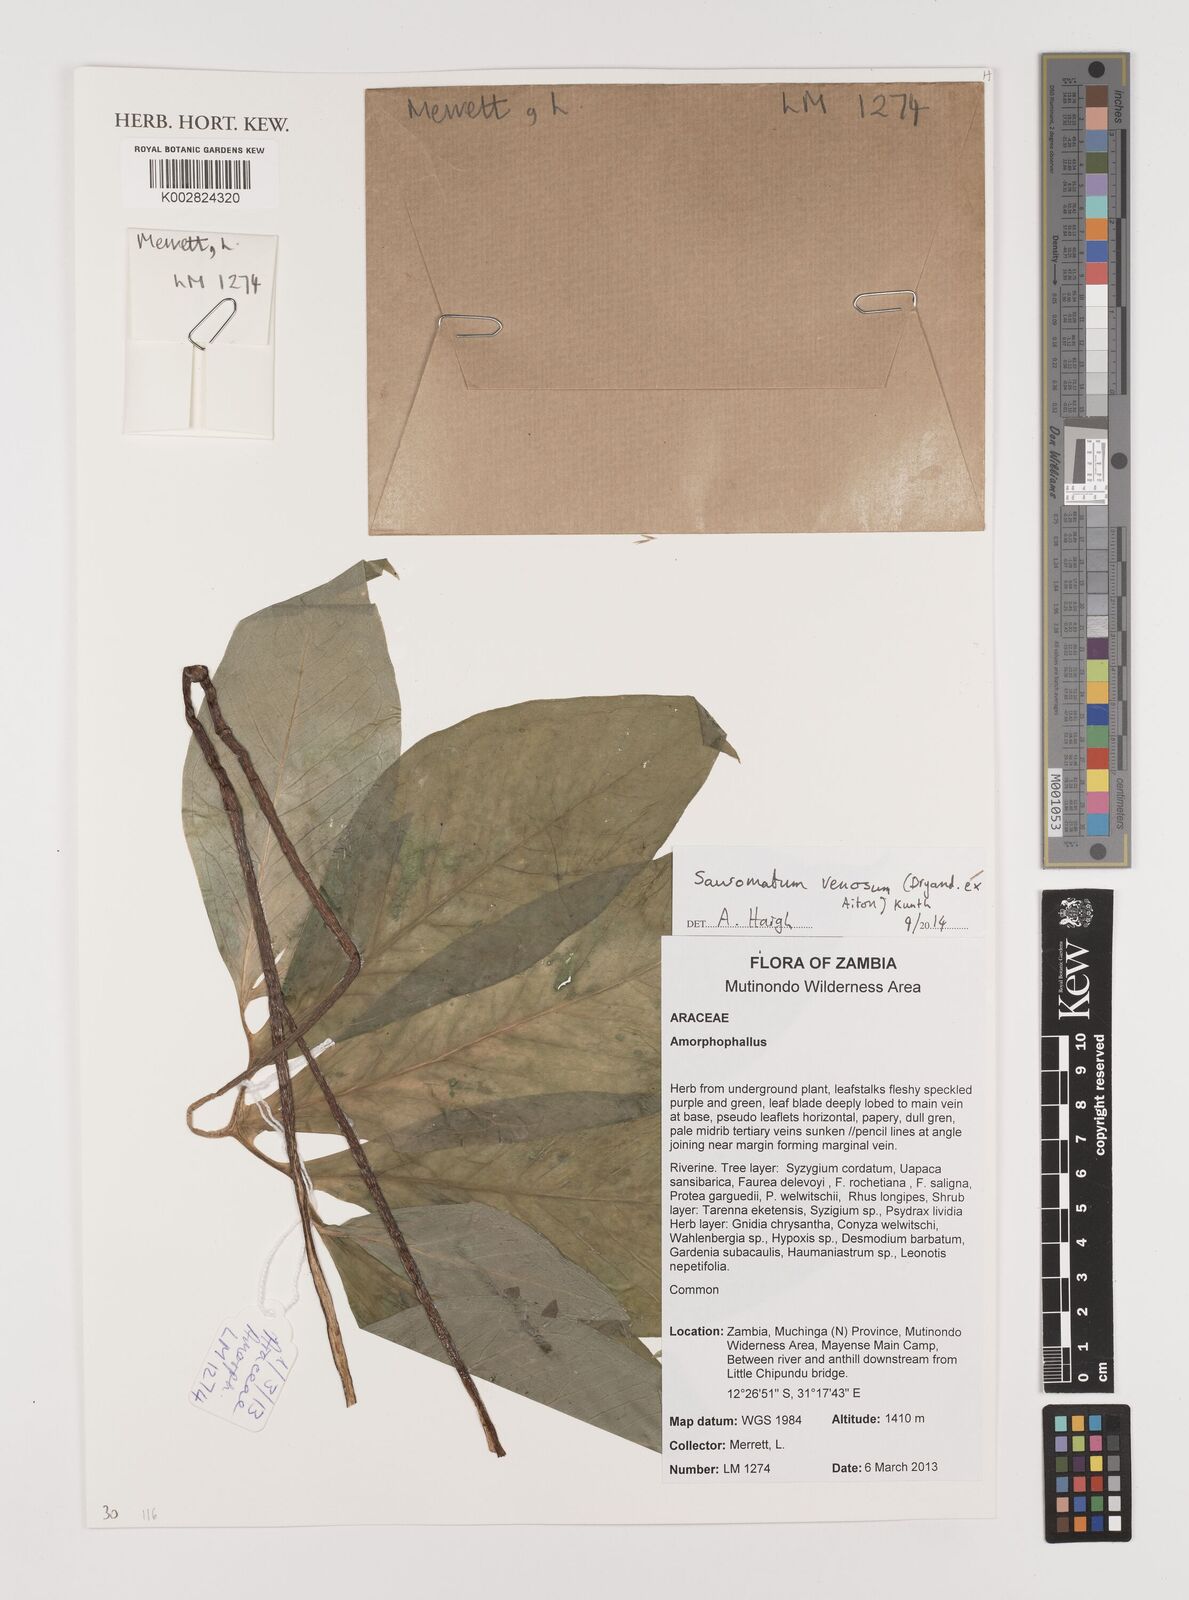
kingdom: Plantae
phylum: Tracheophyta
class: Liliopsida
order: Alismatales
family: Araceae
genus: Sauromatum
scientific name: Sauromatum venosum
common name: Voodoo lily
